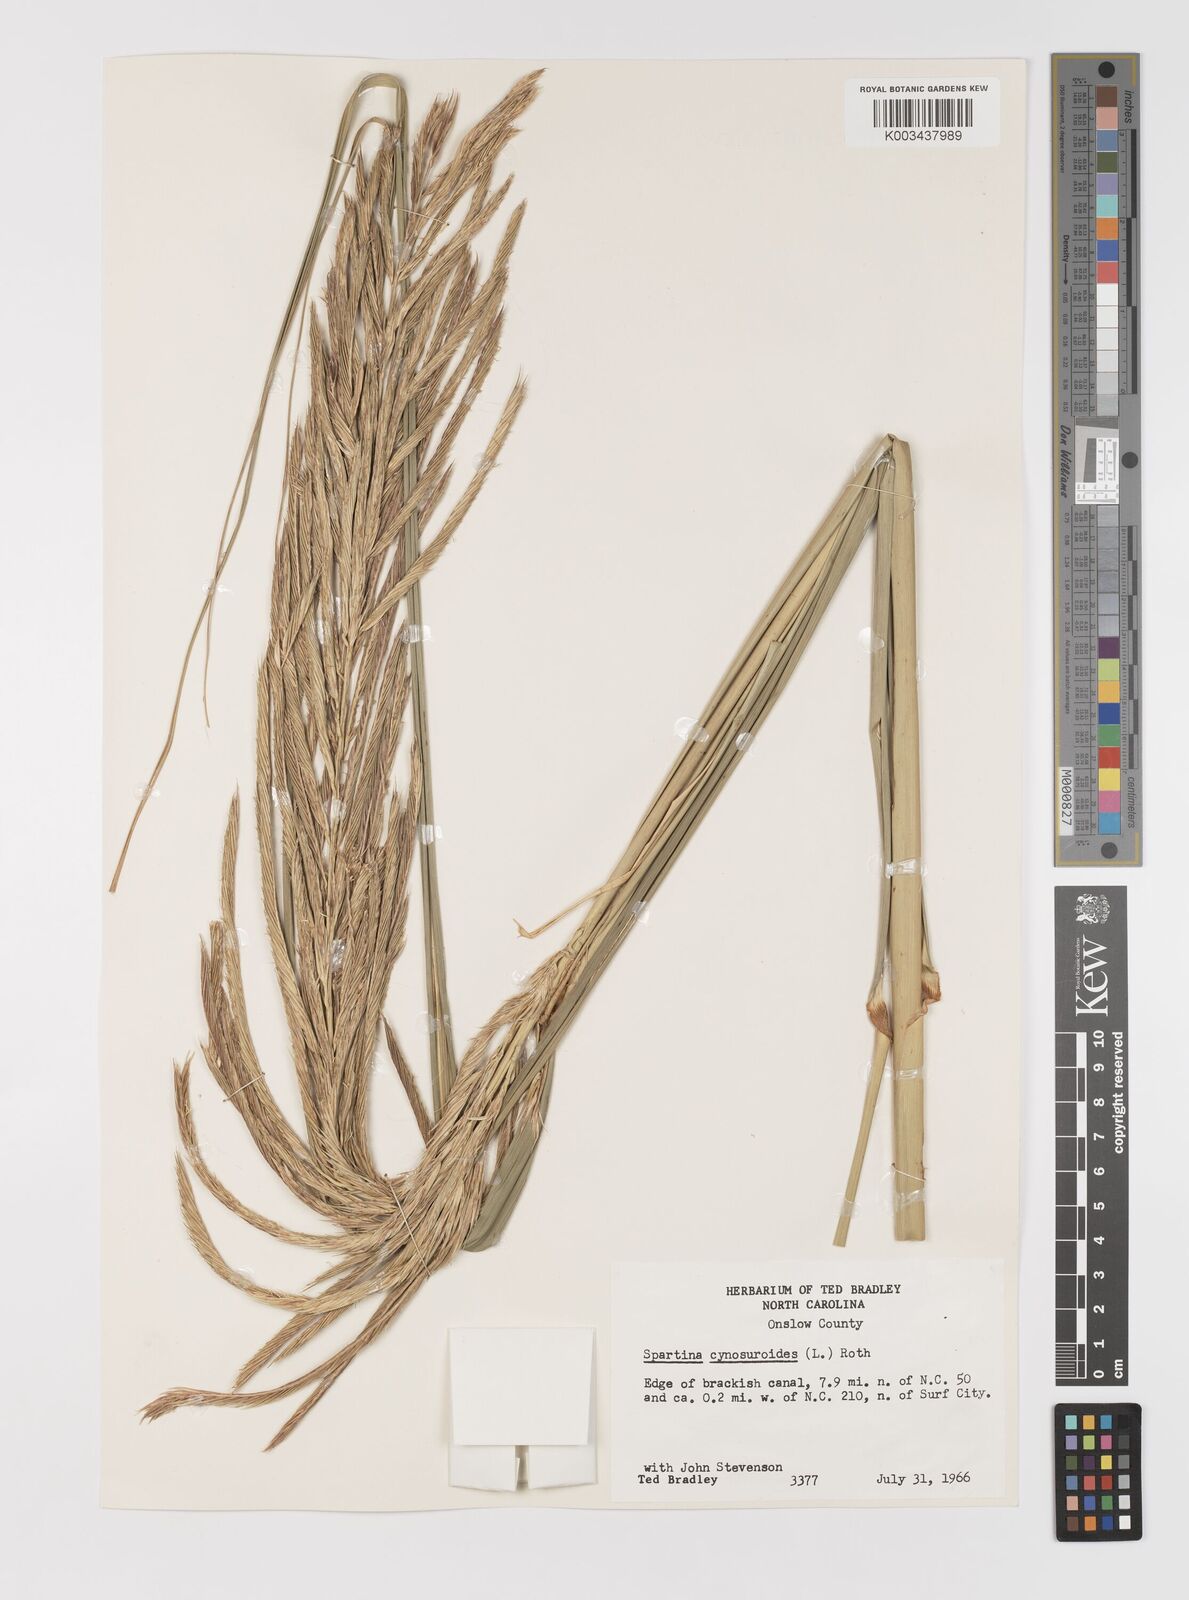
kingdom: Plantae
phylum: Tracheophyta
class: Liliopsida
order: Poales
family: Poaceae
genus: Sporobolus
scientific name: Sporobolus cynosuroides
